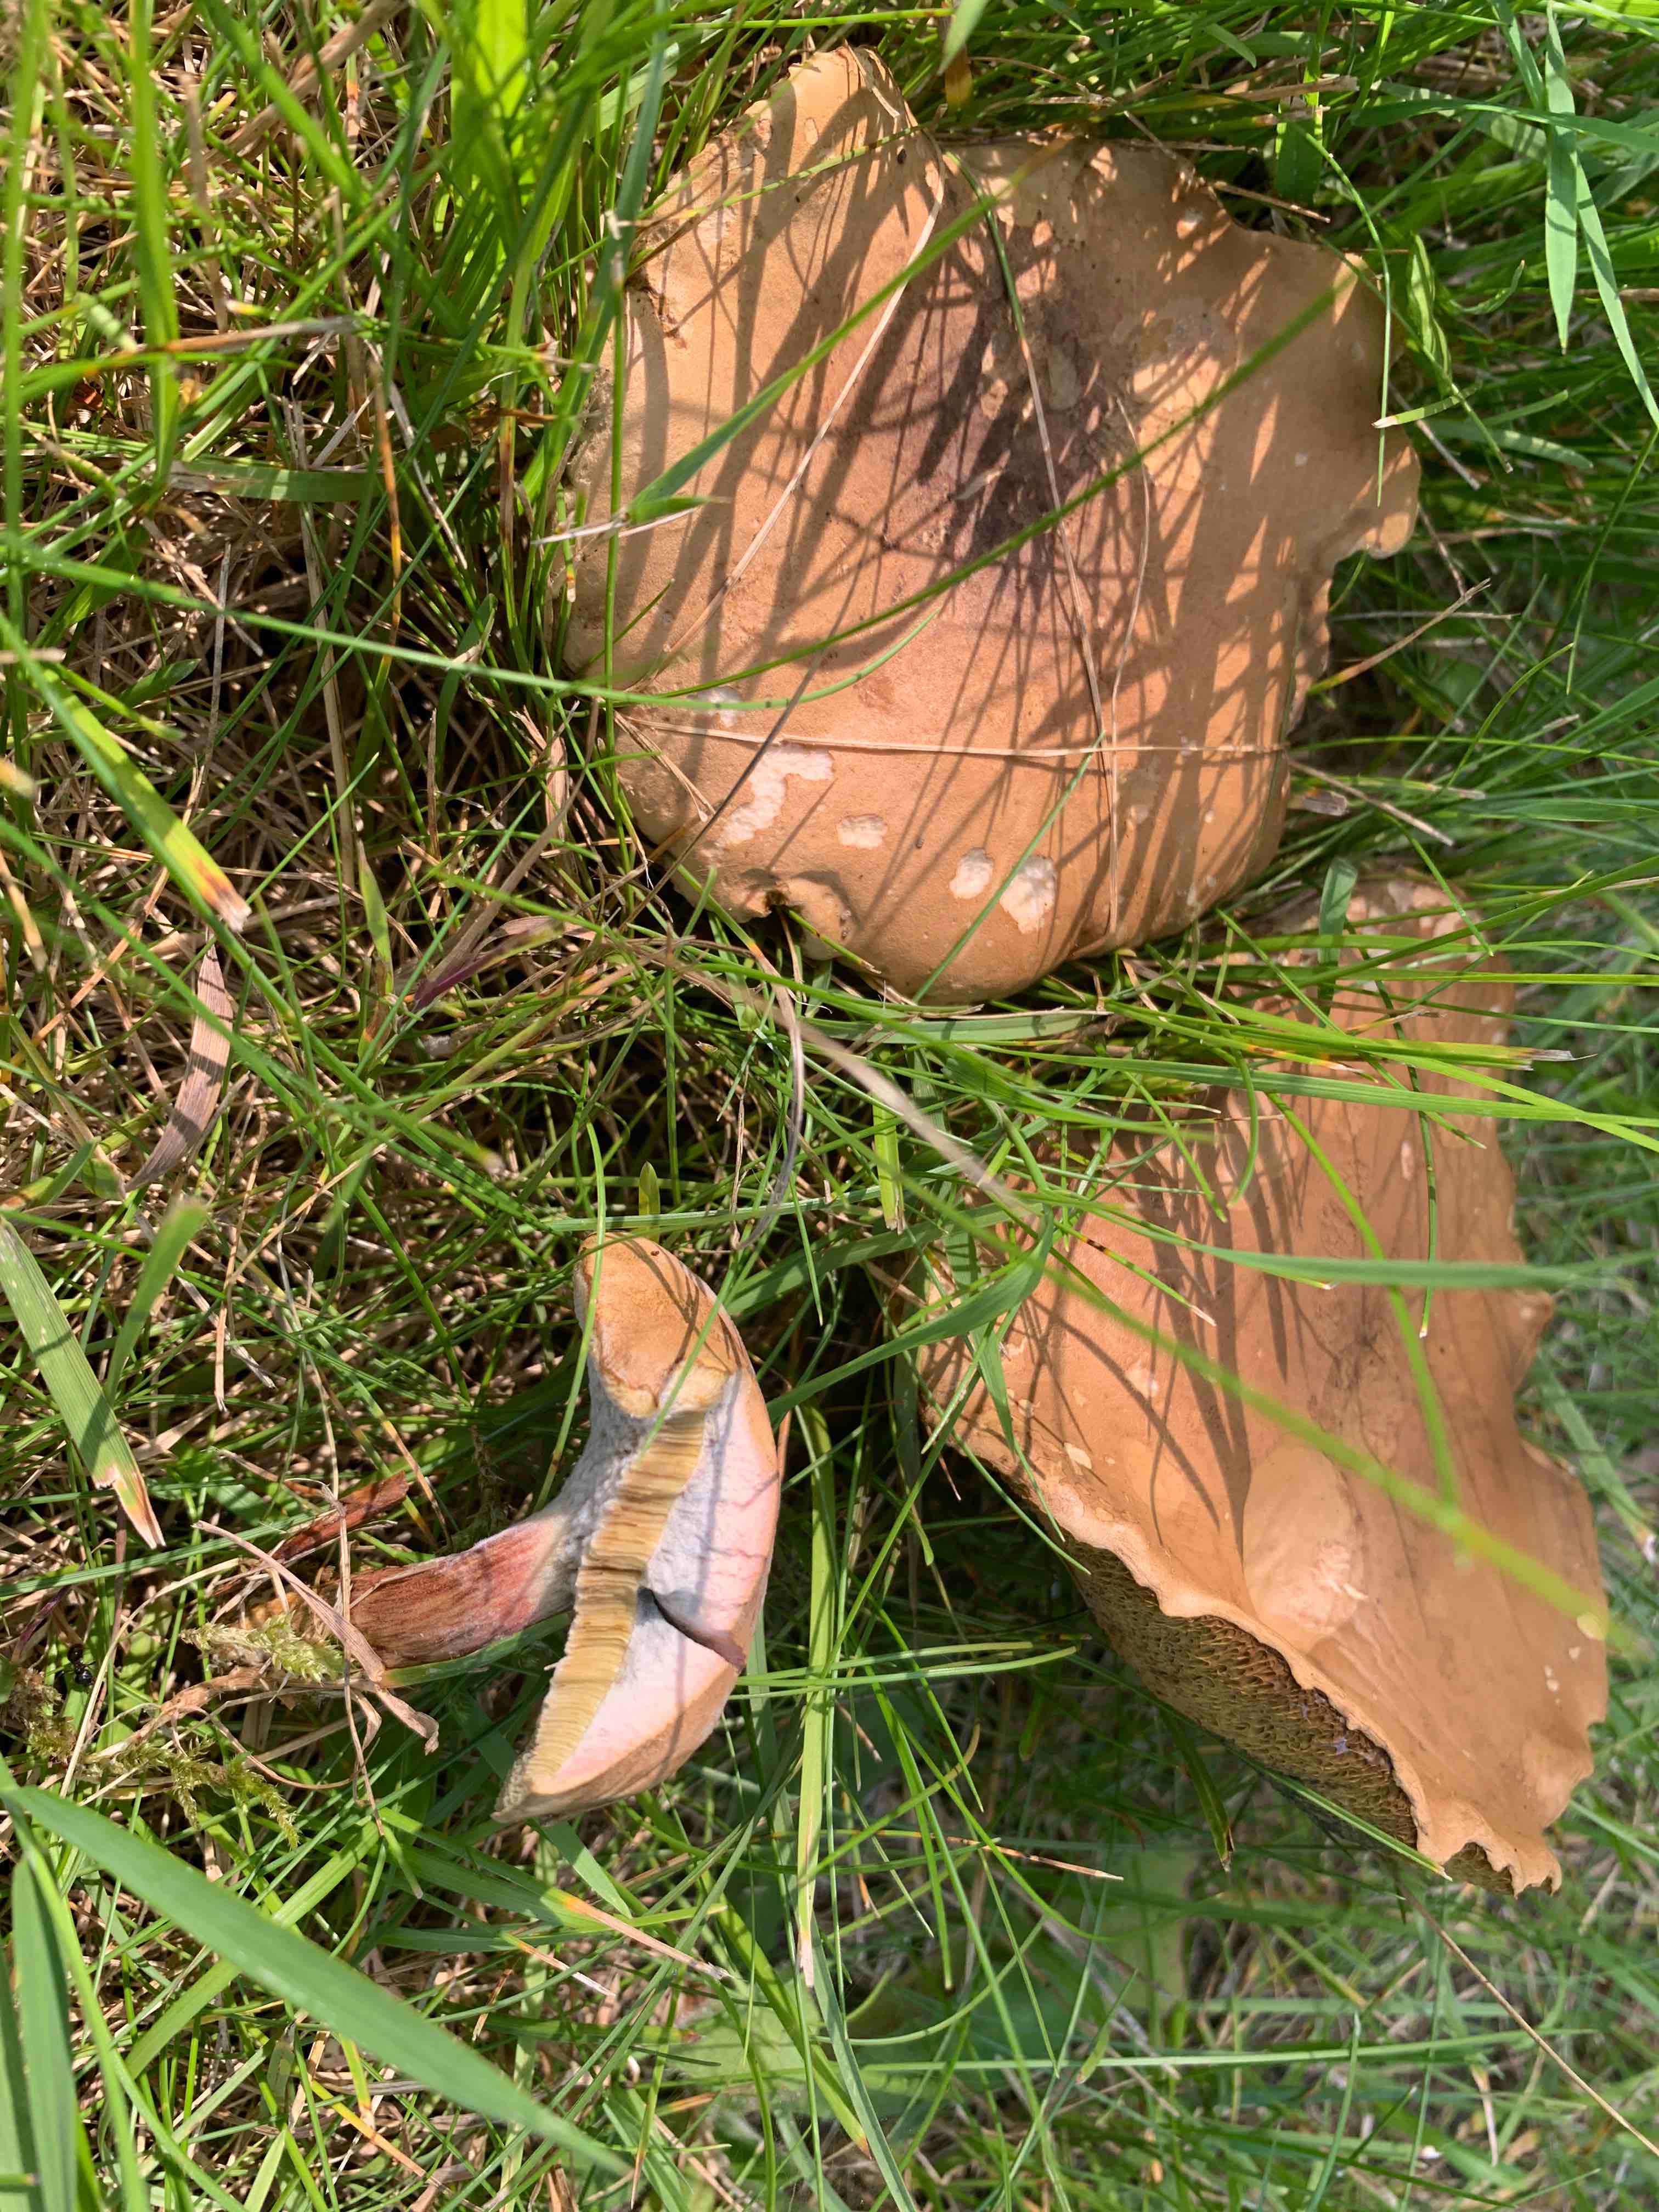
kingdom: Fungi
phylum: Basidiomycota
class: Agaricomycetes
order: Boletales
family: Boletaceae
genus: Hortiboletus
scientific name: Hortiboletus bubalinus
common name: aurora-rørhat
